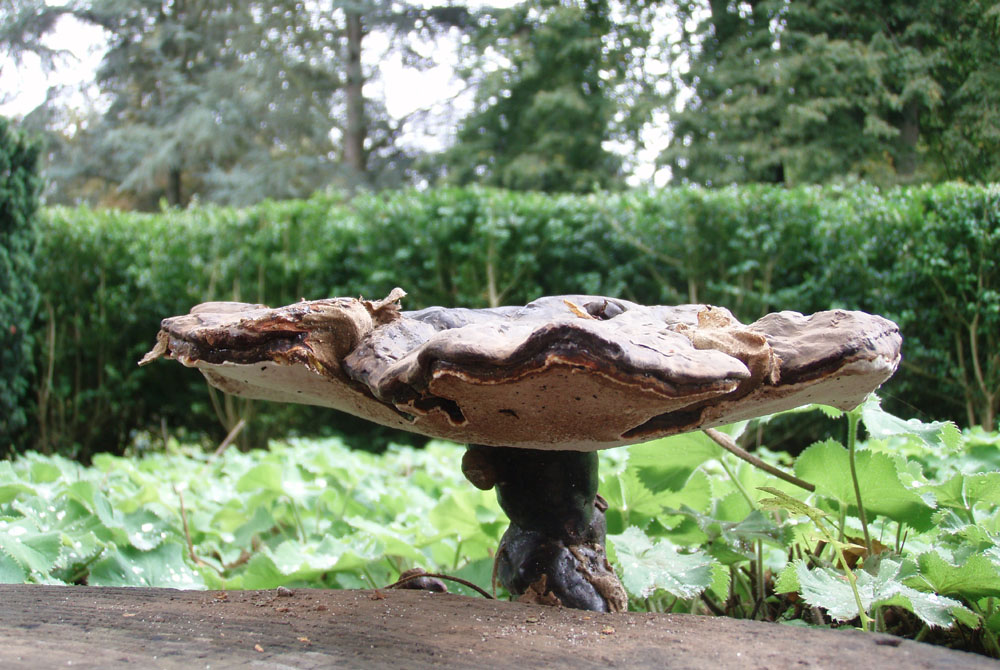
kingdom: Fungi
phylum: Basidiomycota
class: Agaricomycetes
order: Polyporales
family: Polyporaceae
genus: Ganoderma
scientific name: Ganoderma lucidum
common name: skinnende lakporesvamp
